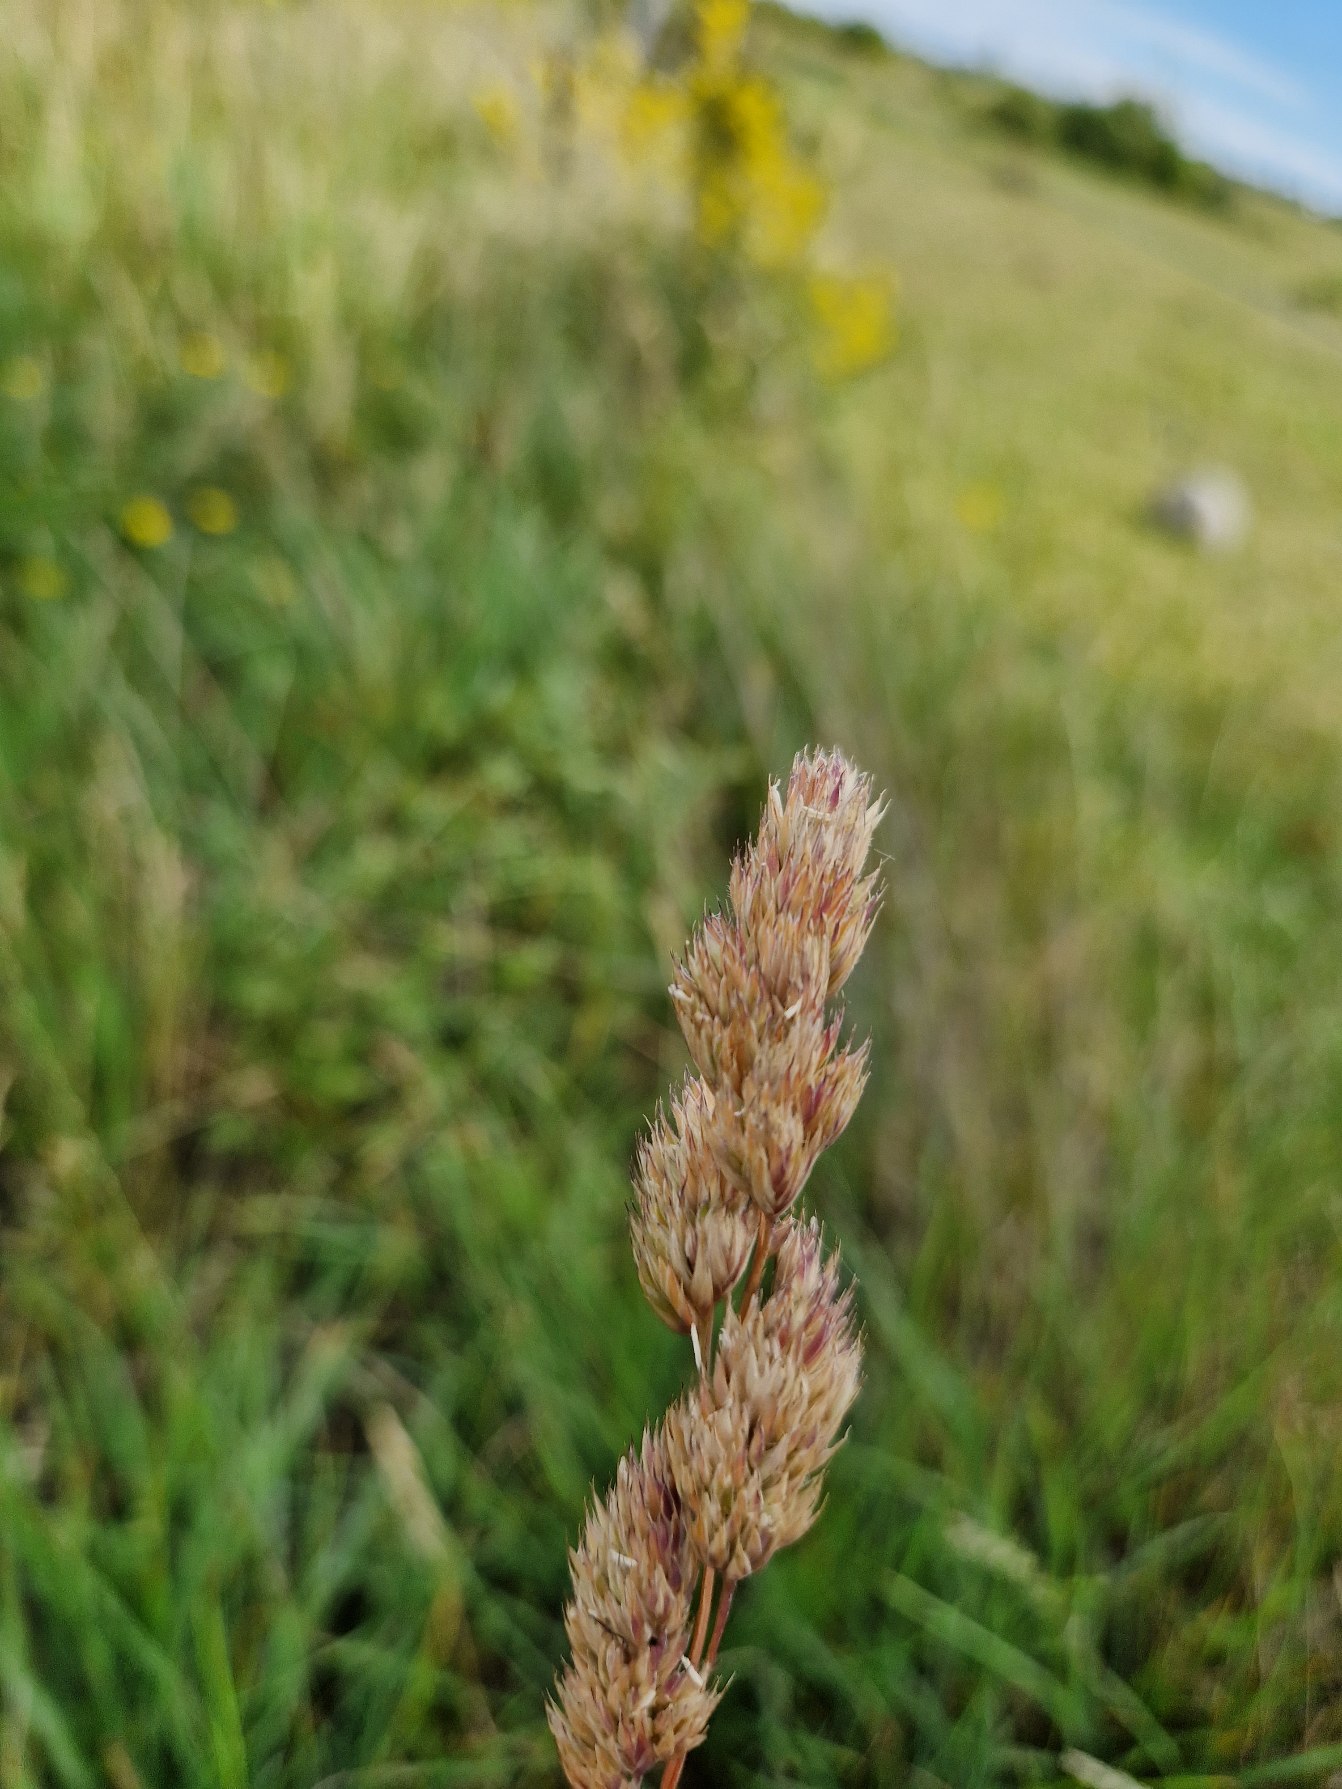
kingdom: Plantae
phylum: Tracheophyta
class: Liliopsida
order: Poales
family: Poaceae
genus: Dactylis
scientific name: Dactylis glomerata
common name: Almindelig hundegræs
